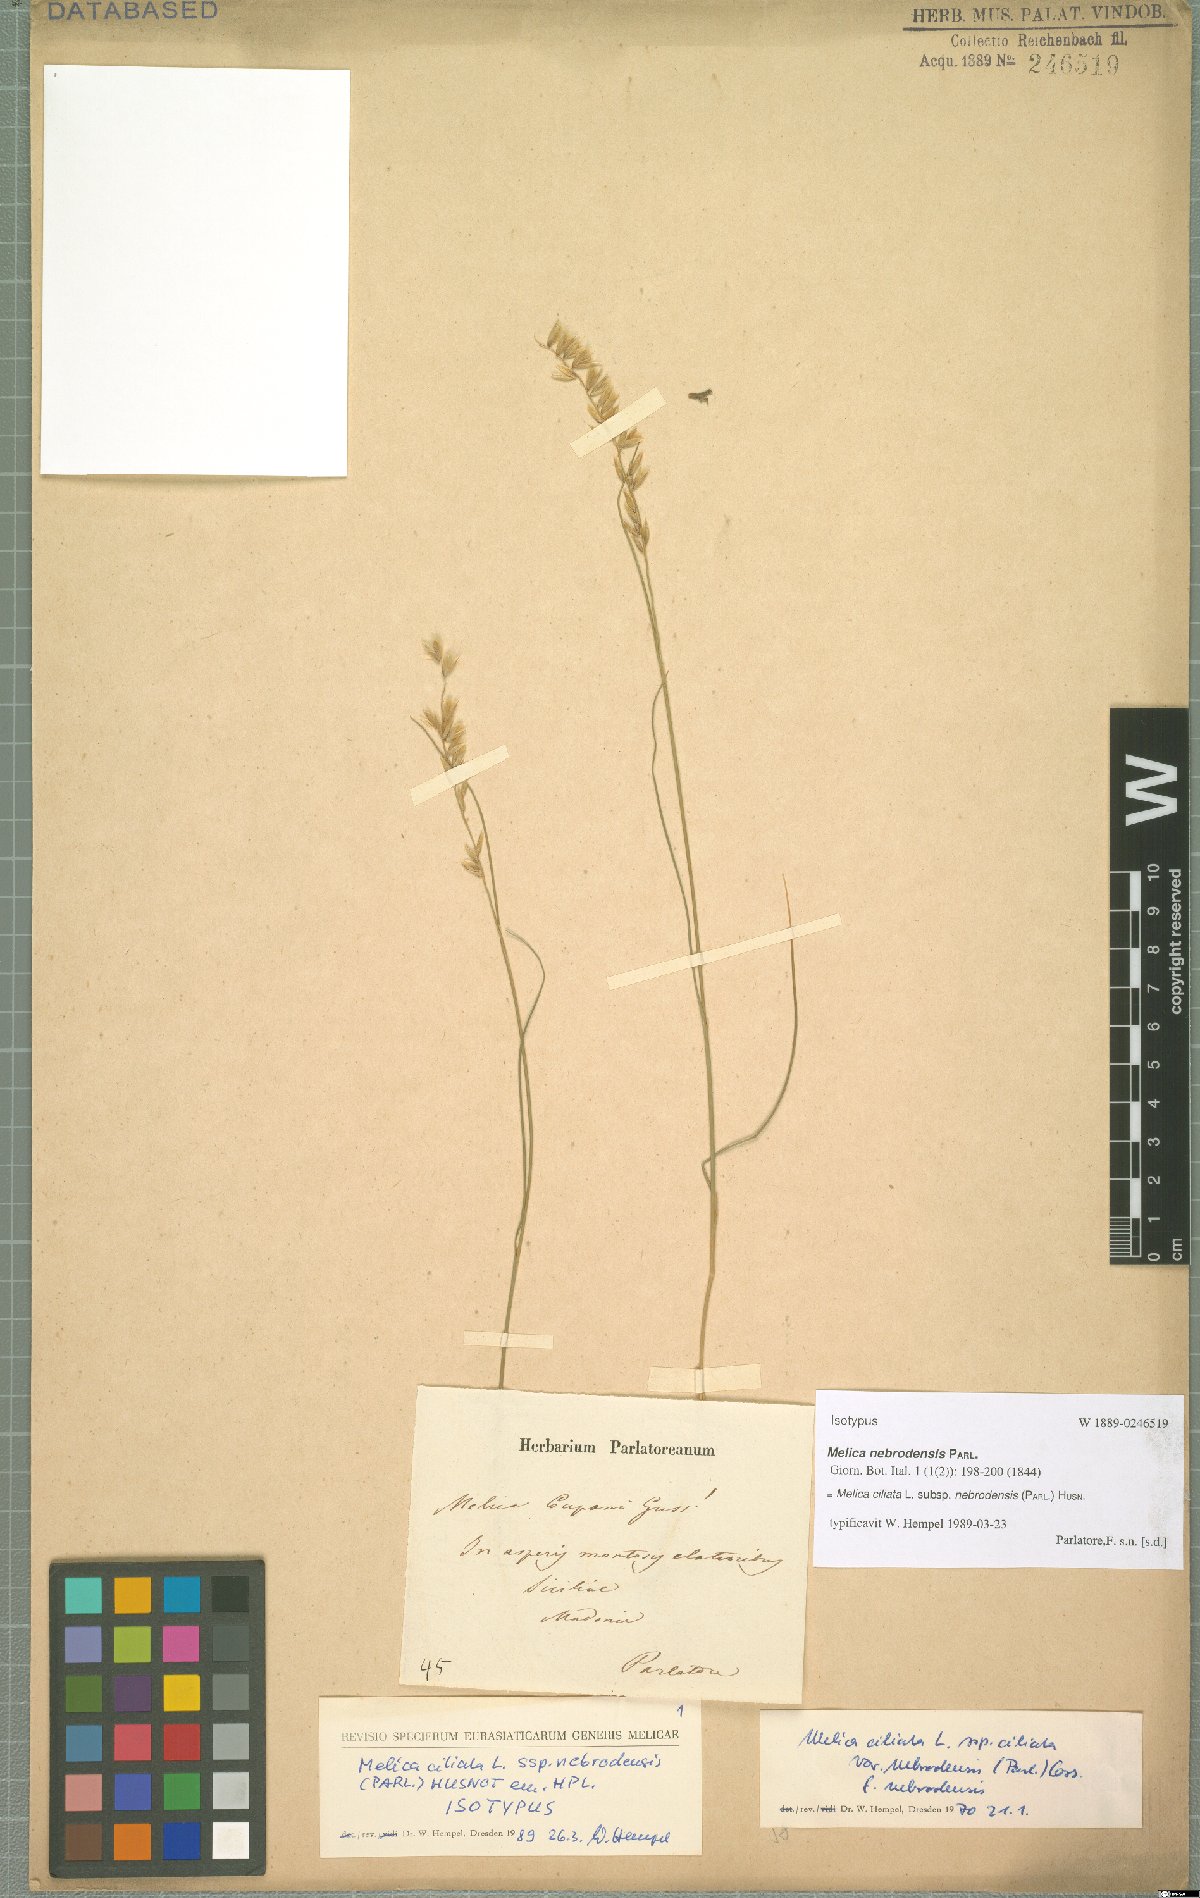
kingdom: Plantae
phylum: Tracheophyta
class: Liliopsida
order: Poales
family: Poaceae
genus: Melica
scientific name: Melica ciliata
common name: Hairy melicgrass
